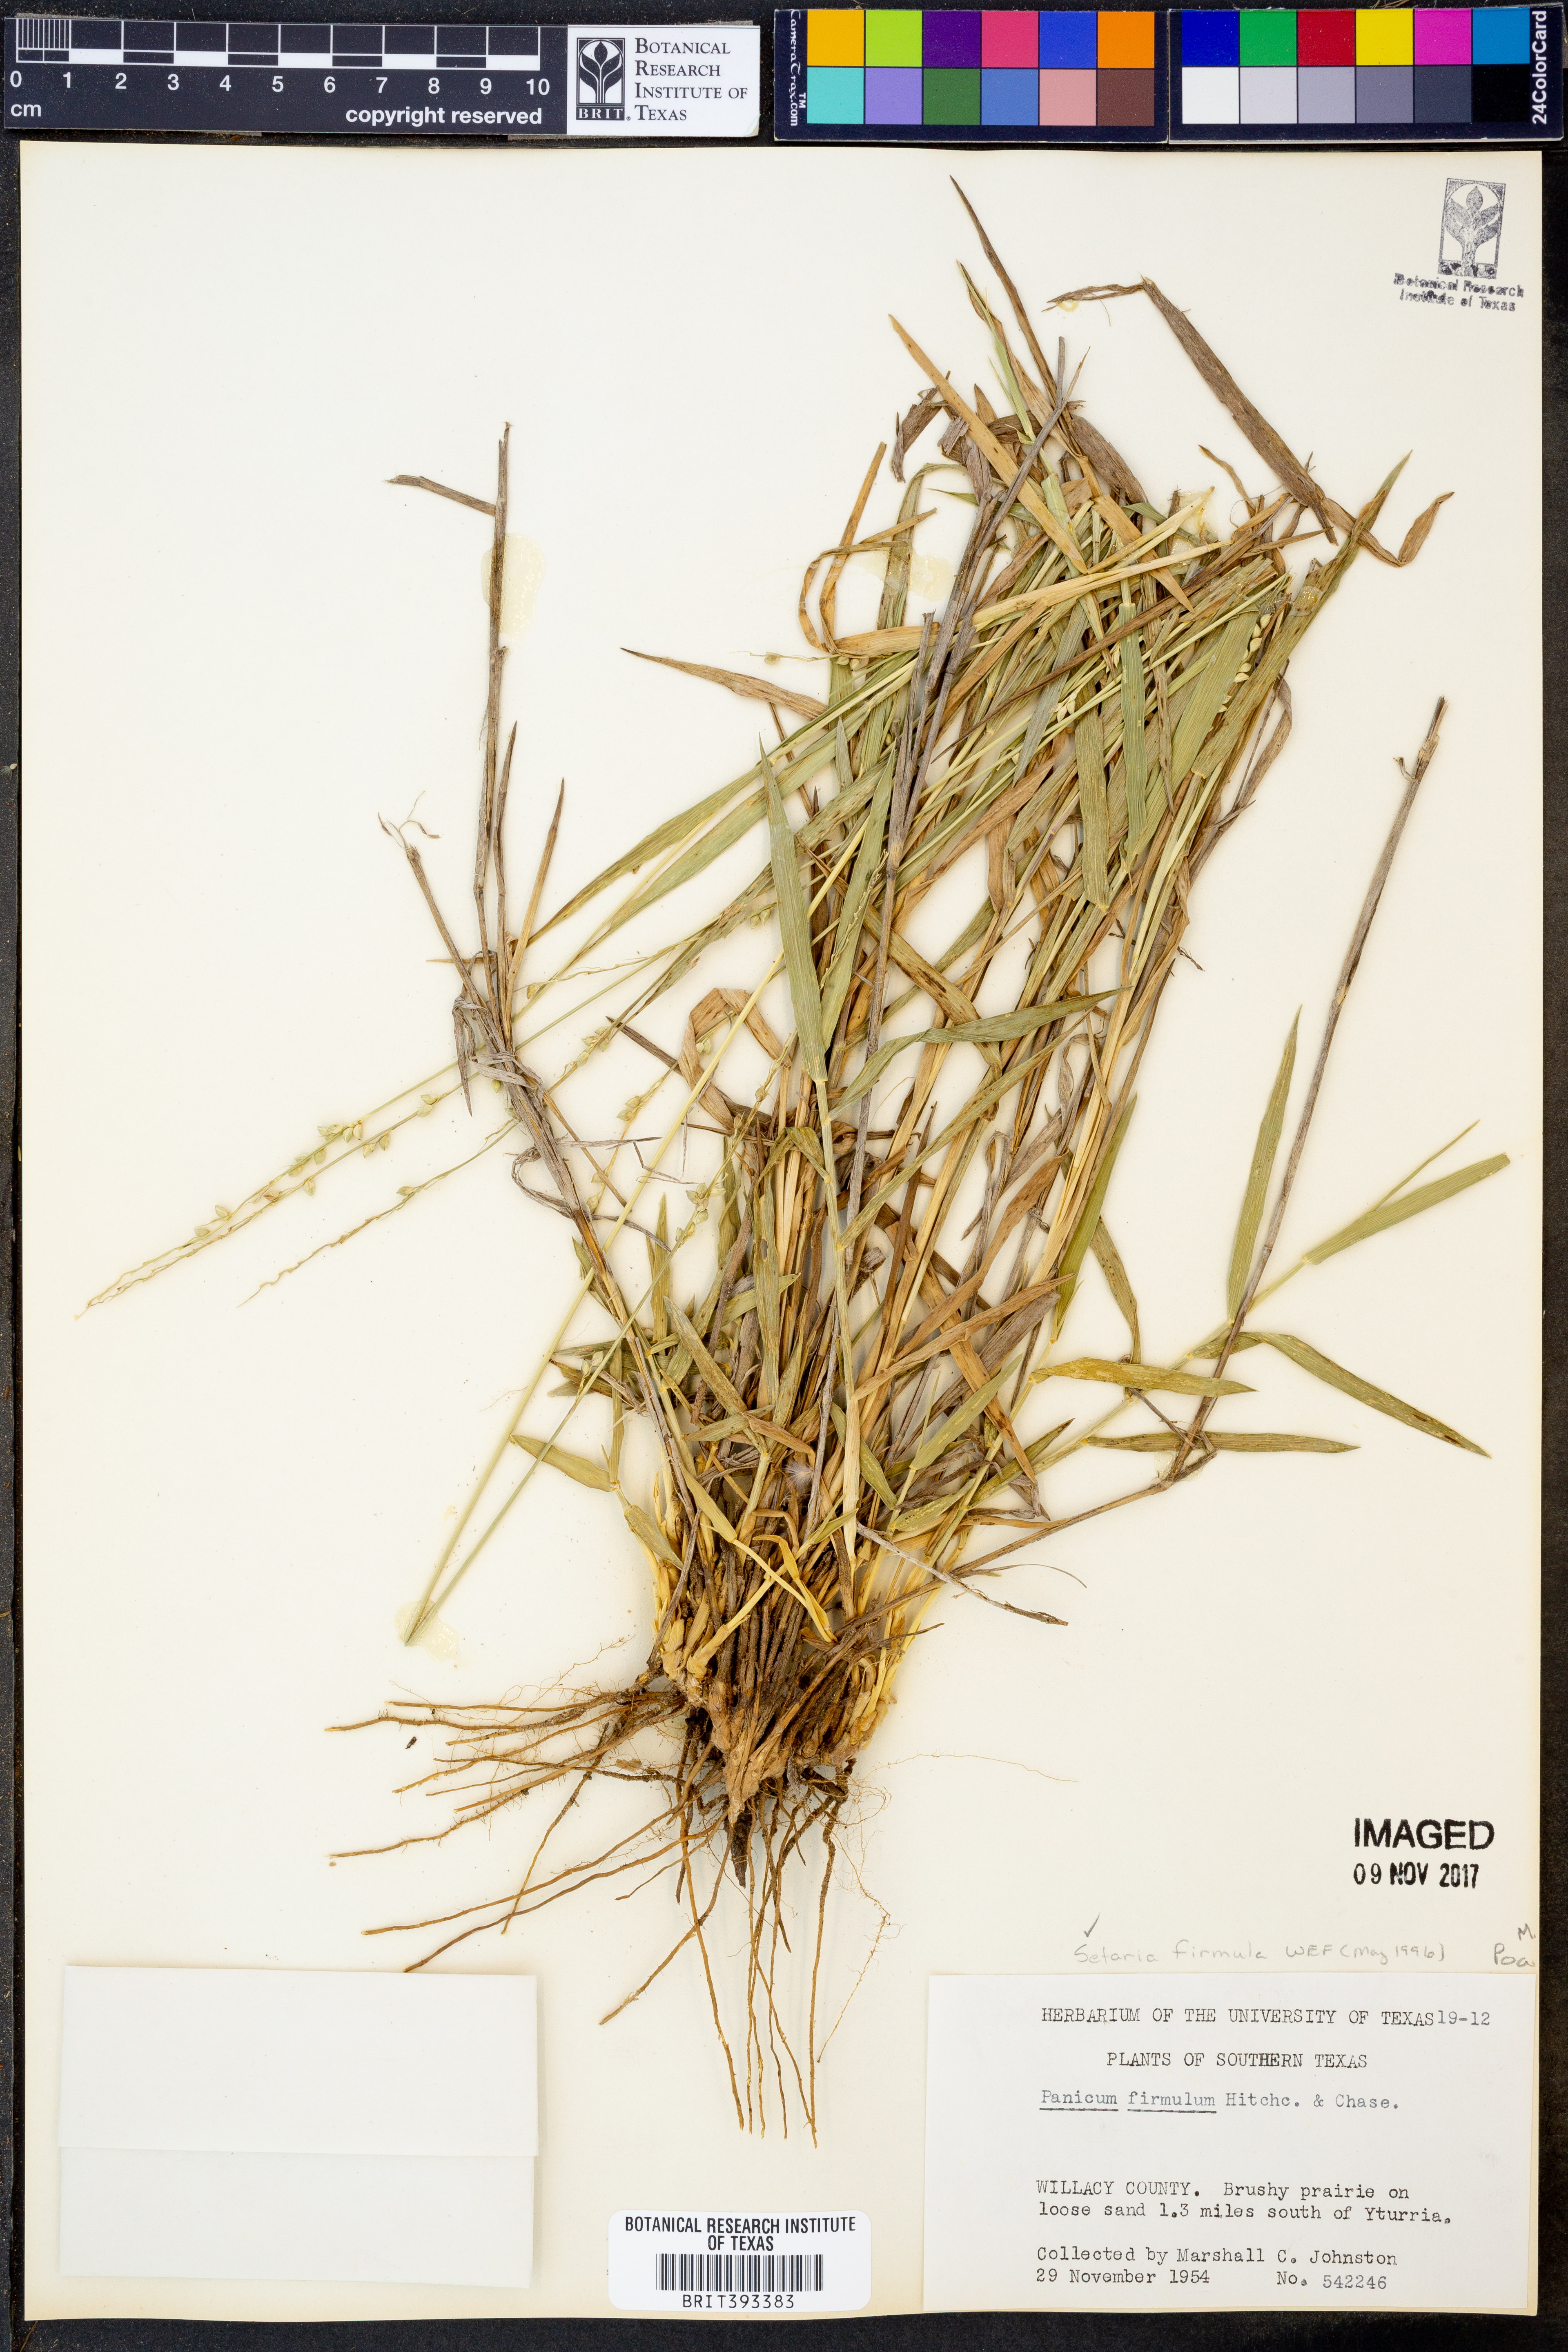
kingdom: Plantae
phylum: Tracheophyta
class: Liliopsida
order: Poales
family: Poaceae
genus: Setaria
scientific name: Setaria reverchonii
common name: Reverchon's bristle grass
